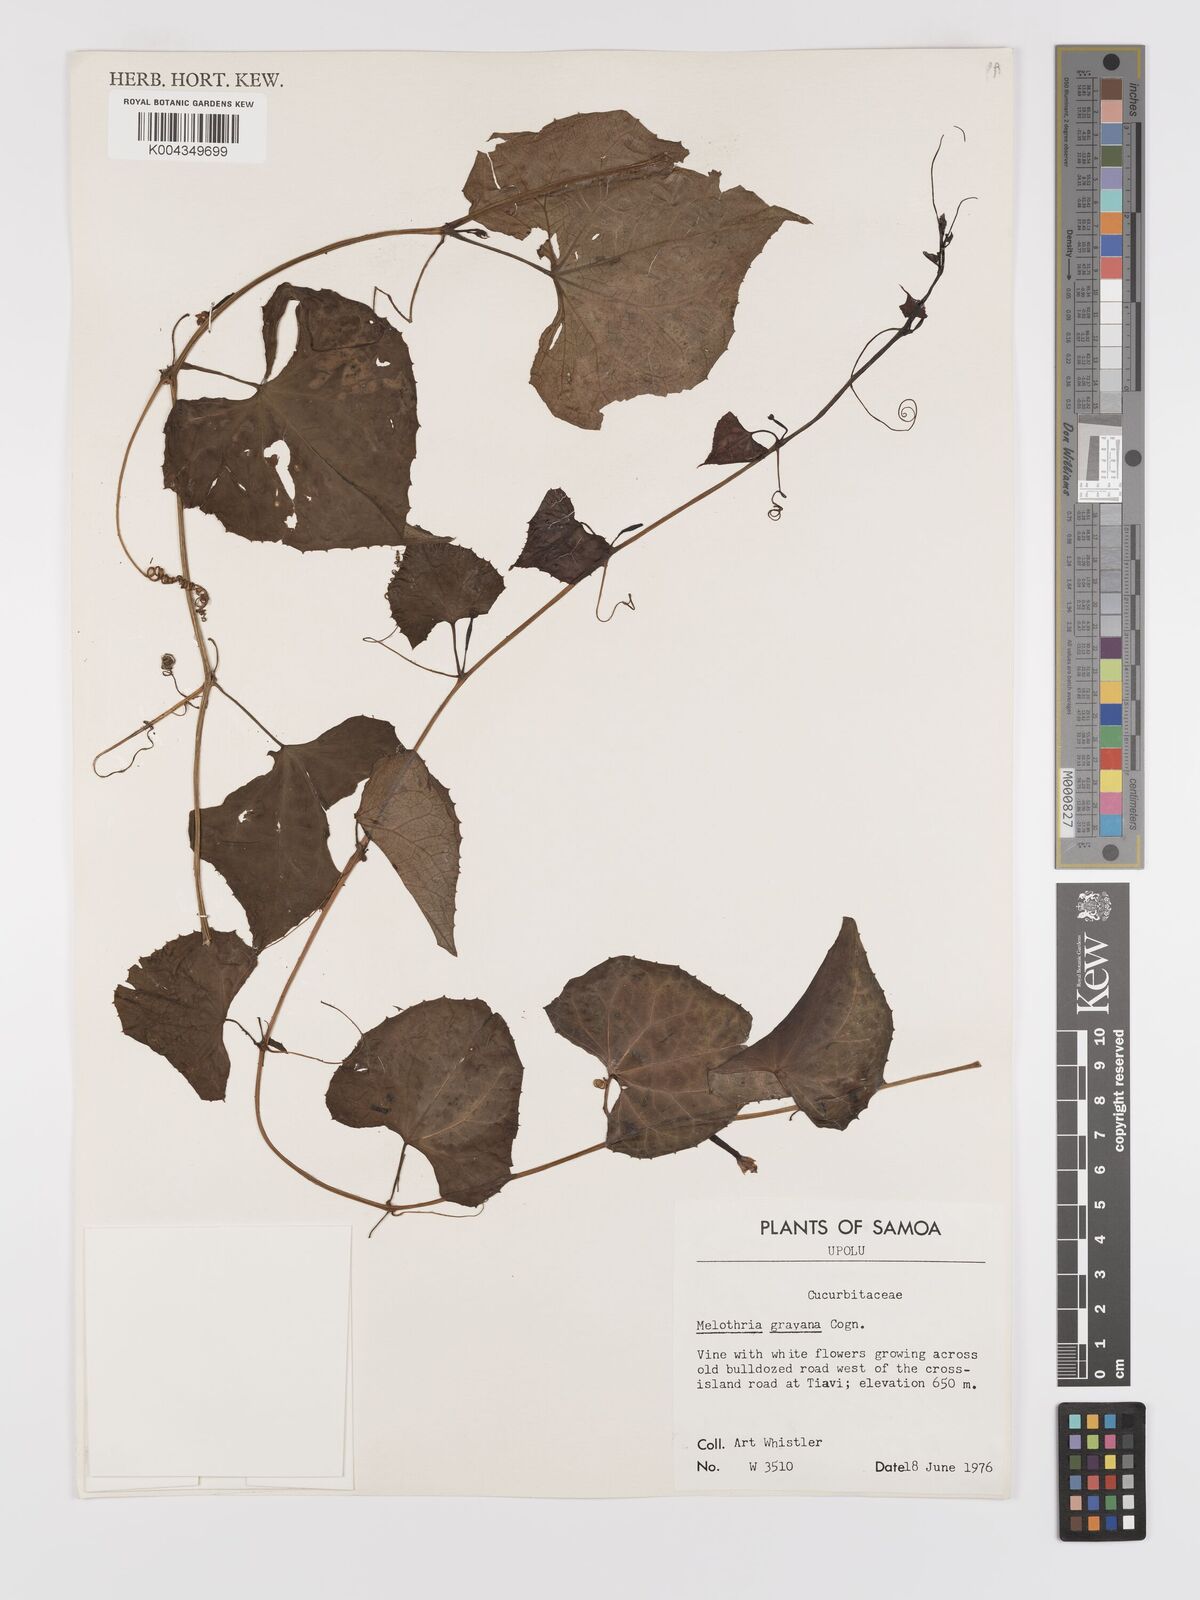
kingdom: Plantae
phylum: Tracheophyta
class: Magnoliopsida
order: Cucurbitales
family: Cucurbitaceae
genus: Zehneria
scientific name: Zehneria
